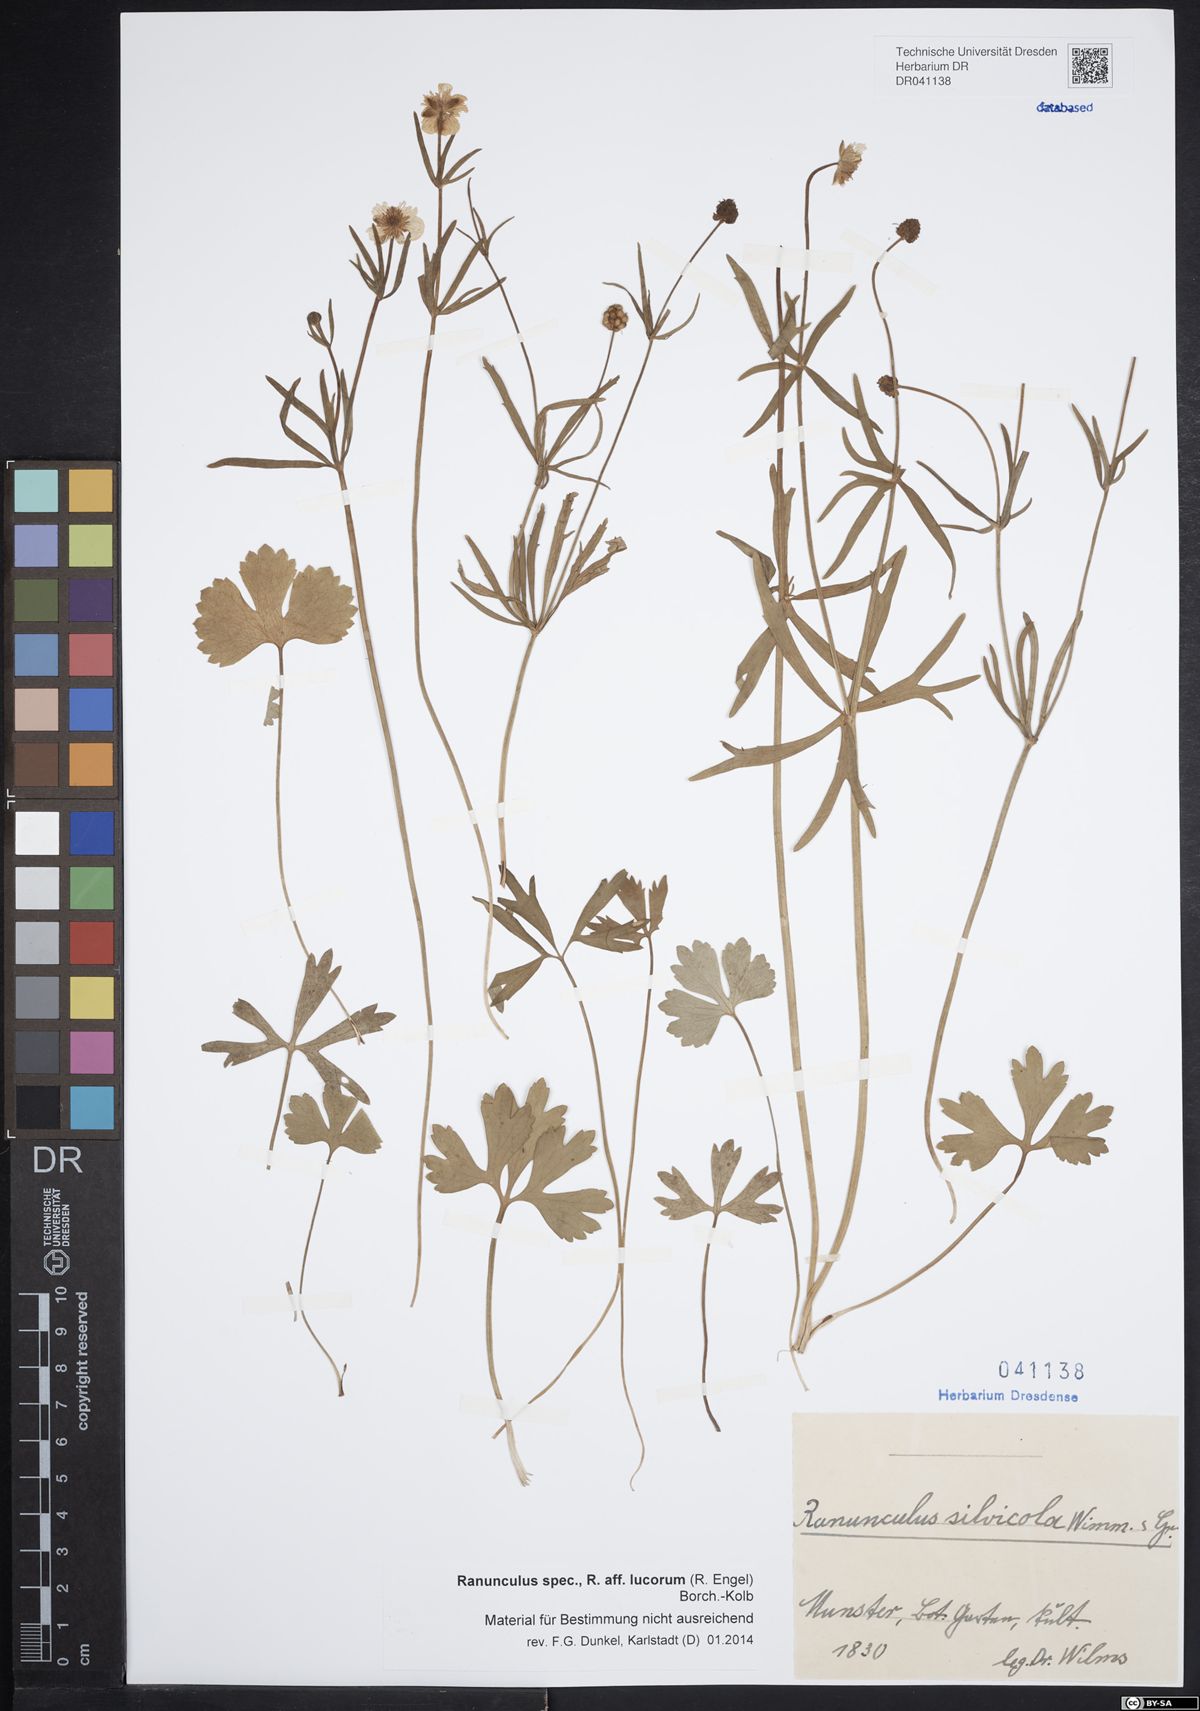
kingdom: Plantae
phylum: Tracheophyta
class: Magnoliopsida
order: Ranunculales
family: Ranunculaceae
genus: Ranunculus
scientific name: Ranunculus lucorum
